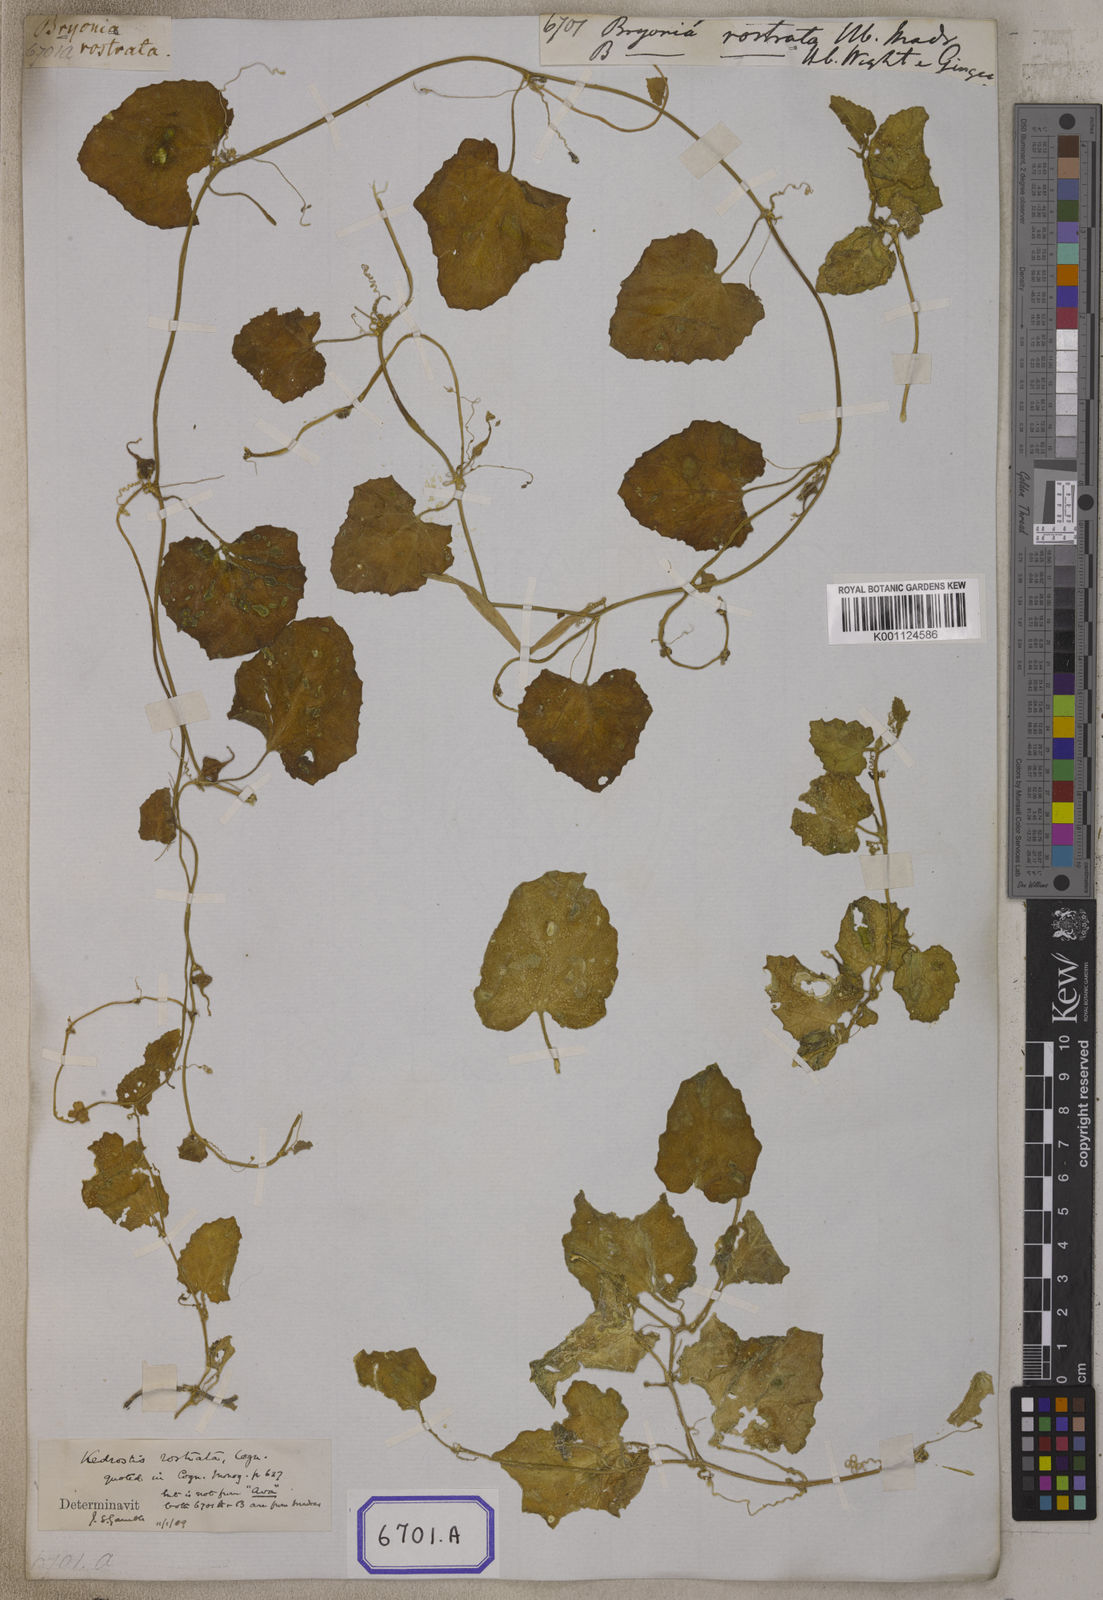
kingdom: Plantae
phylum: Tracheophyta
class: Magnoliopsida
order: Cucurbitales
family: Cucurbitaceae
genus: Kedrostis
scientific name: Kedrostis foetidissima
